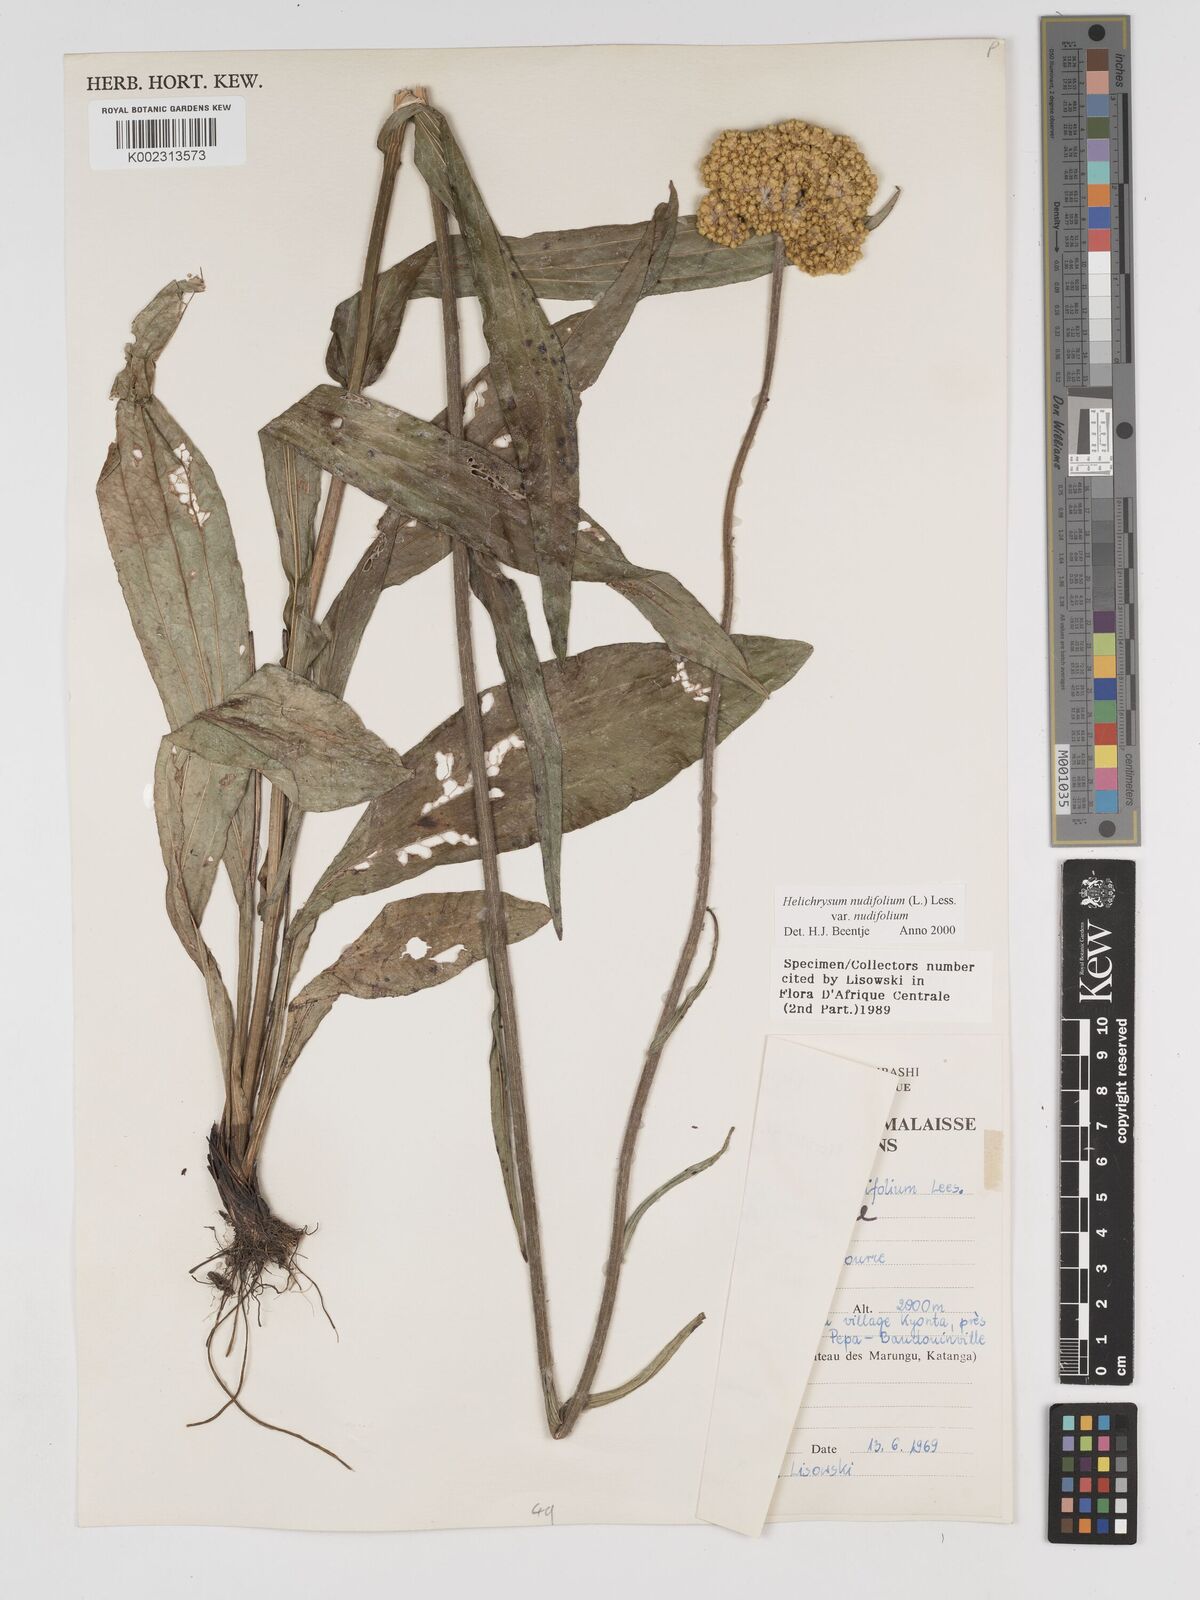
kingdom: Plantae
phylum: Tracheophyta
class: Magnoliopsida
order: Asterales
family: Asteraceae
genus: Helichrysum
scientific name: Helichrysum nudifolium
